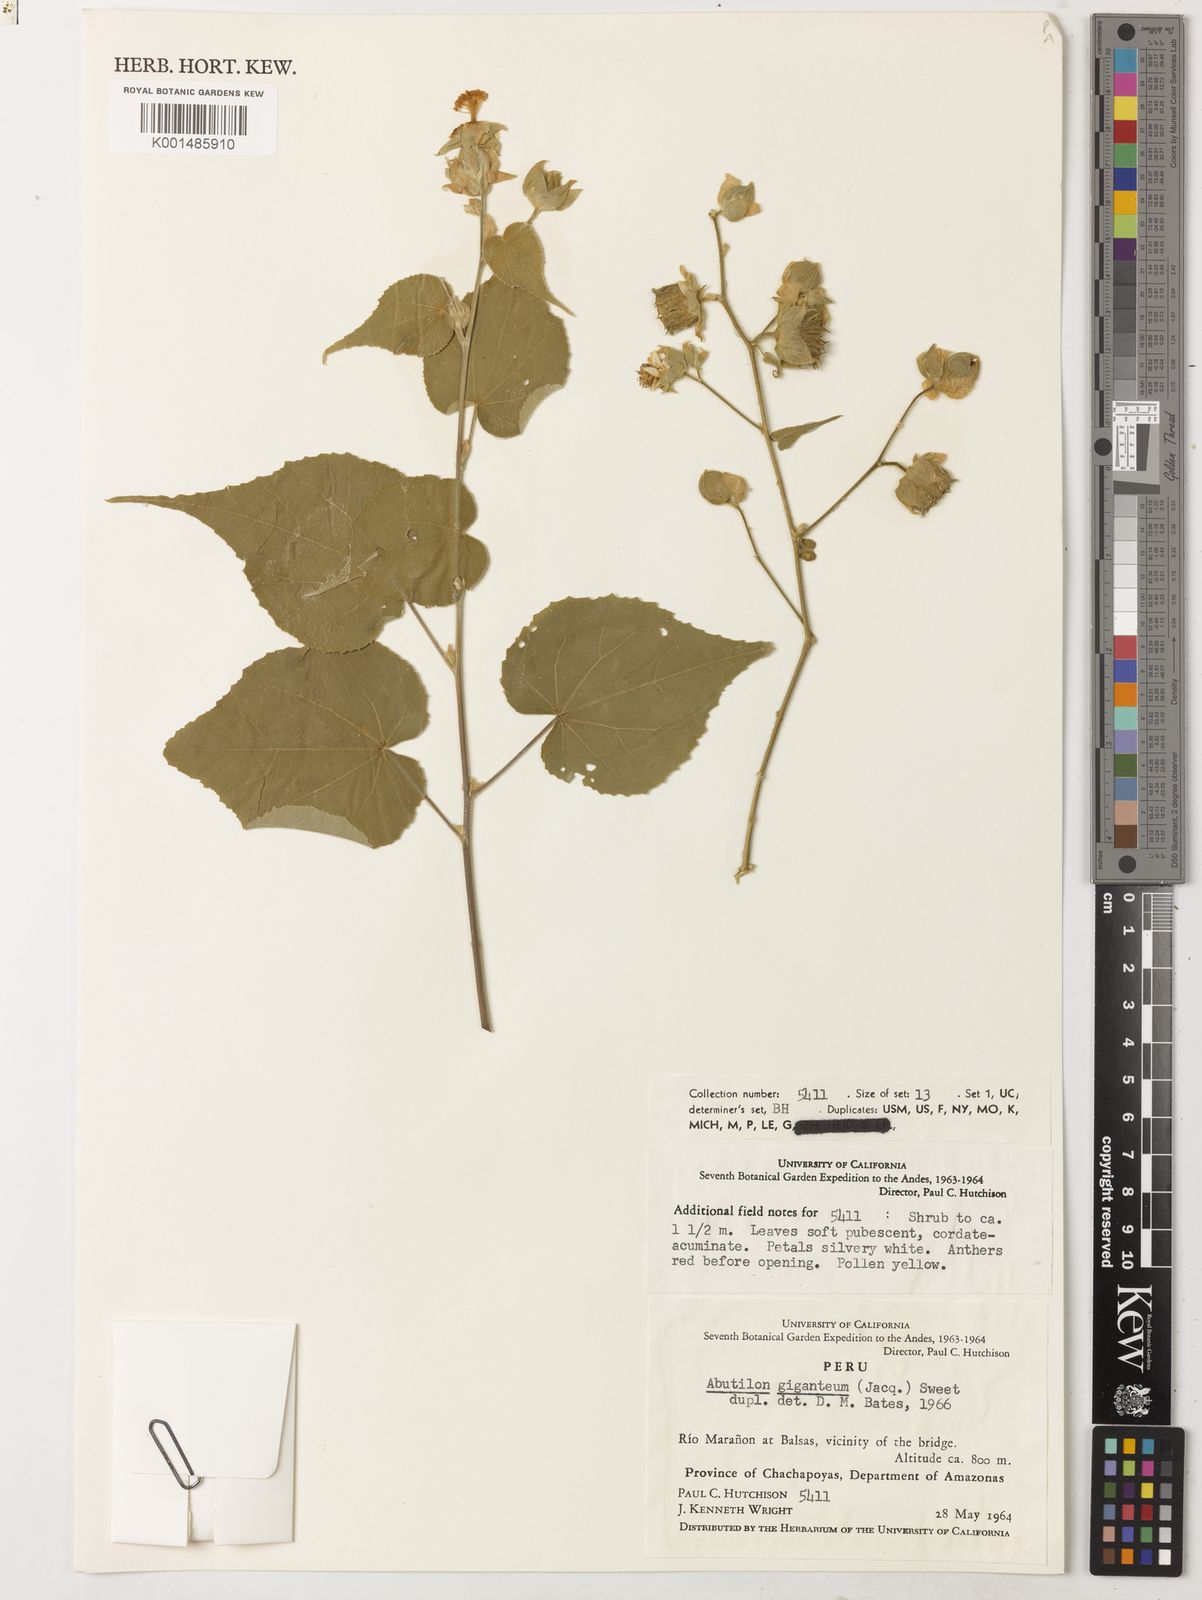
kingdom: Plantae
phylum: Tracheophyta
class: Magnoliopsida
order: Malvales
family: Malvaceae
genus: Abutilon
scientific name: Abutilon giganteum
